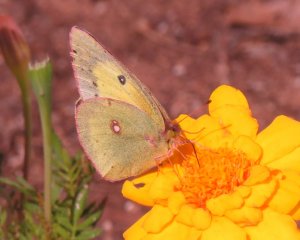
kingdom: Animalia
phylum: Arthropoda
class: Insecta
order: Lepidoptera
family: Pieridae
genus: Colias
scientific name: Colias philodice
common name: Clouded Sulphur
